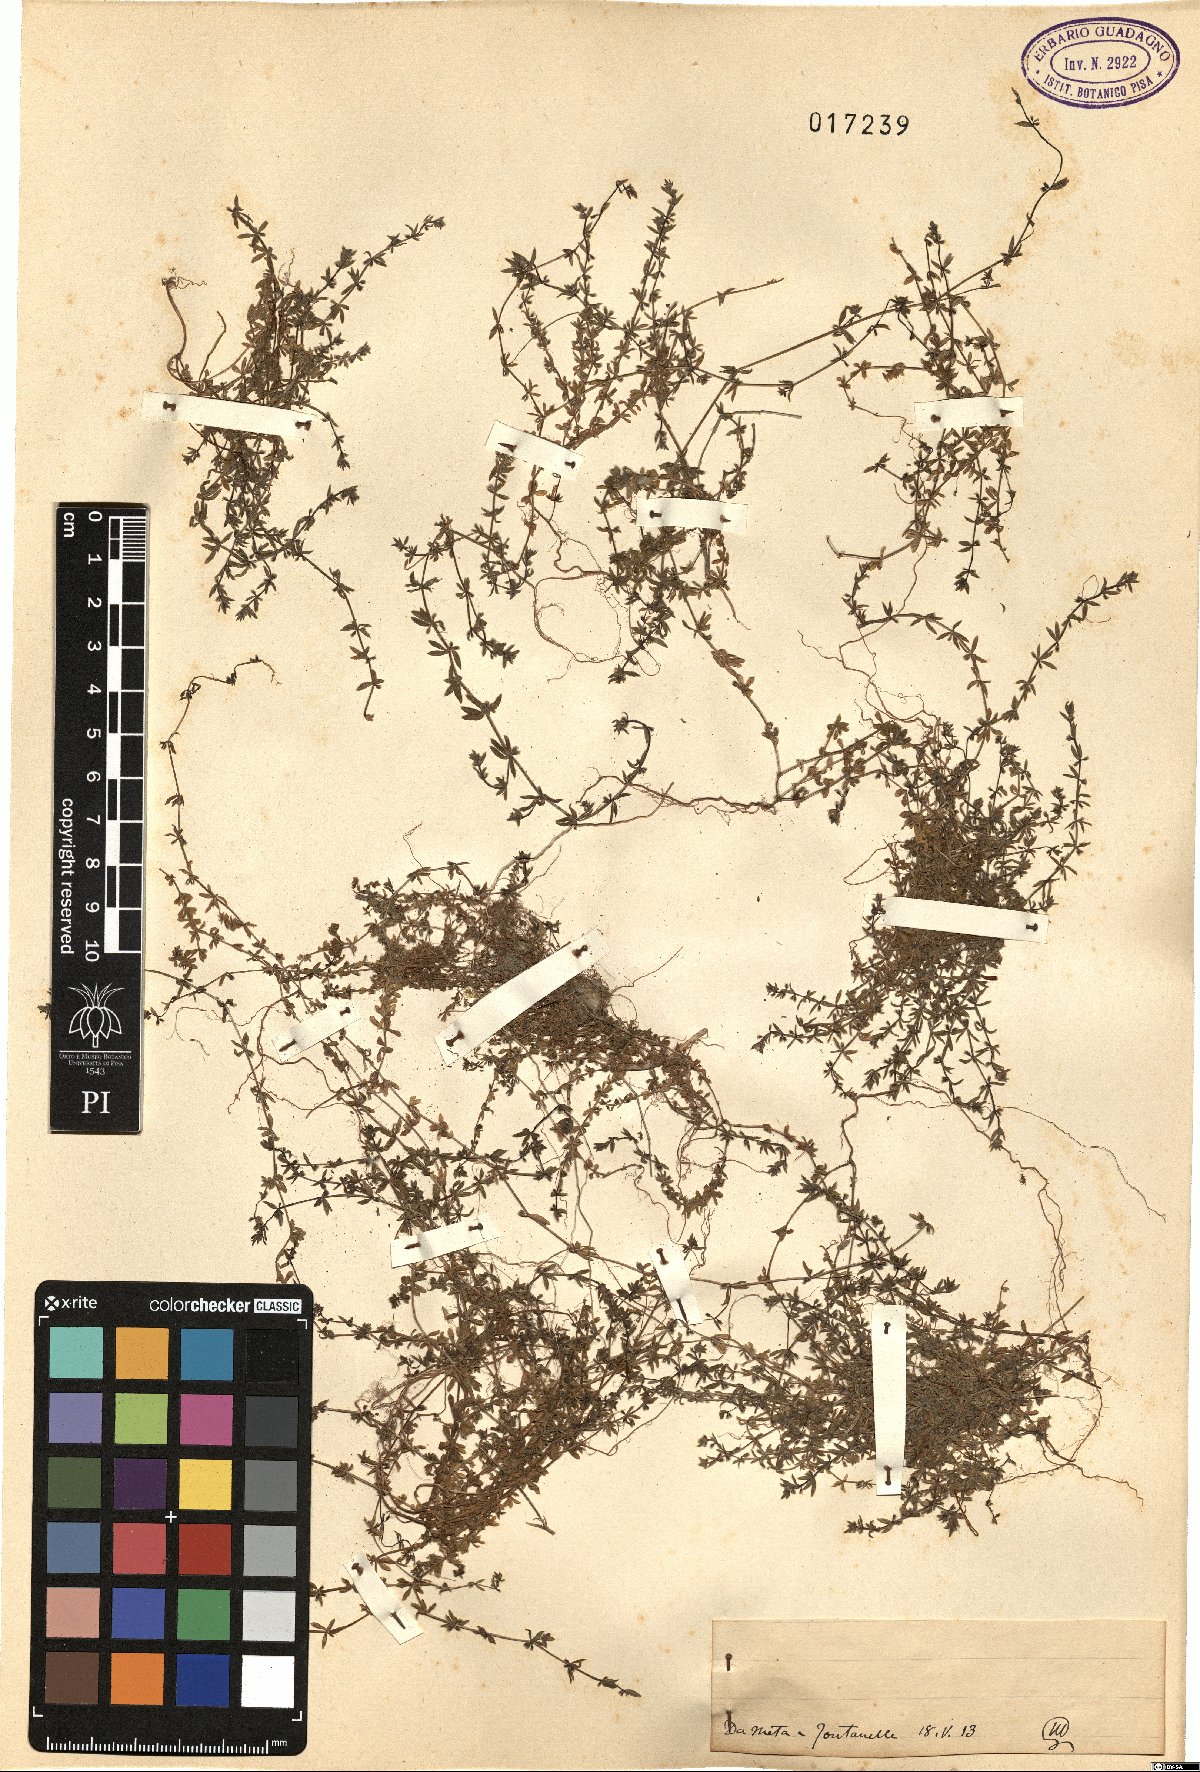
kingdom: Plantae
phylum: Tracheophyta
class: Magnoliopsida
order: Gentianales
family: Rubiaceae
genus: Galium
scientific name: Galium
